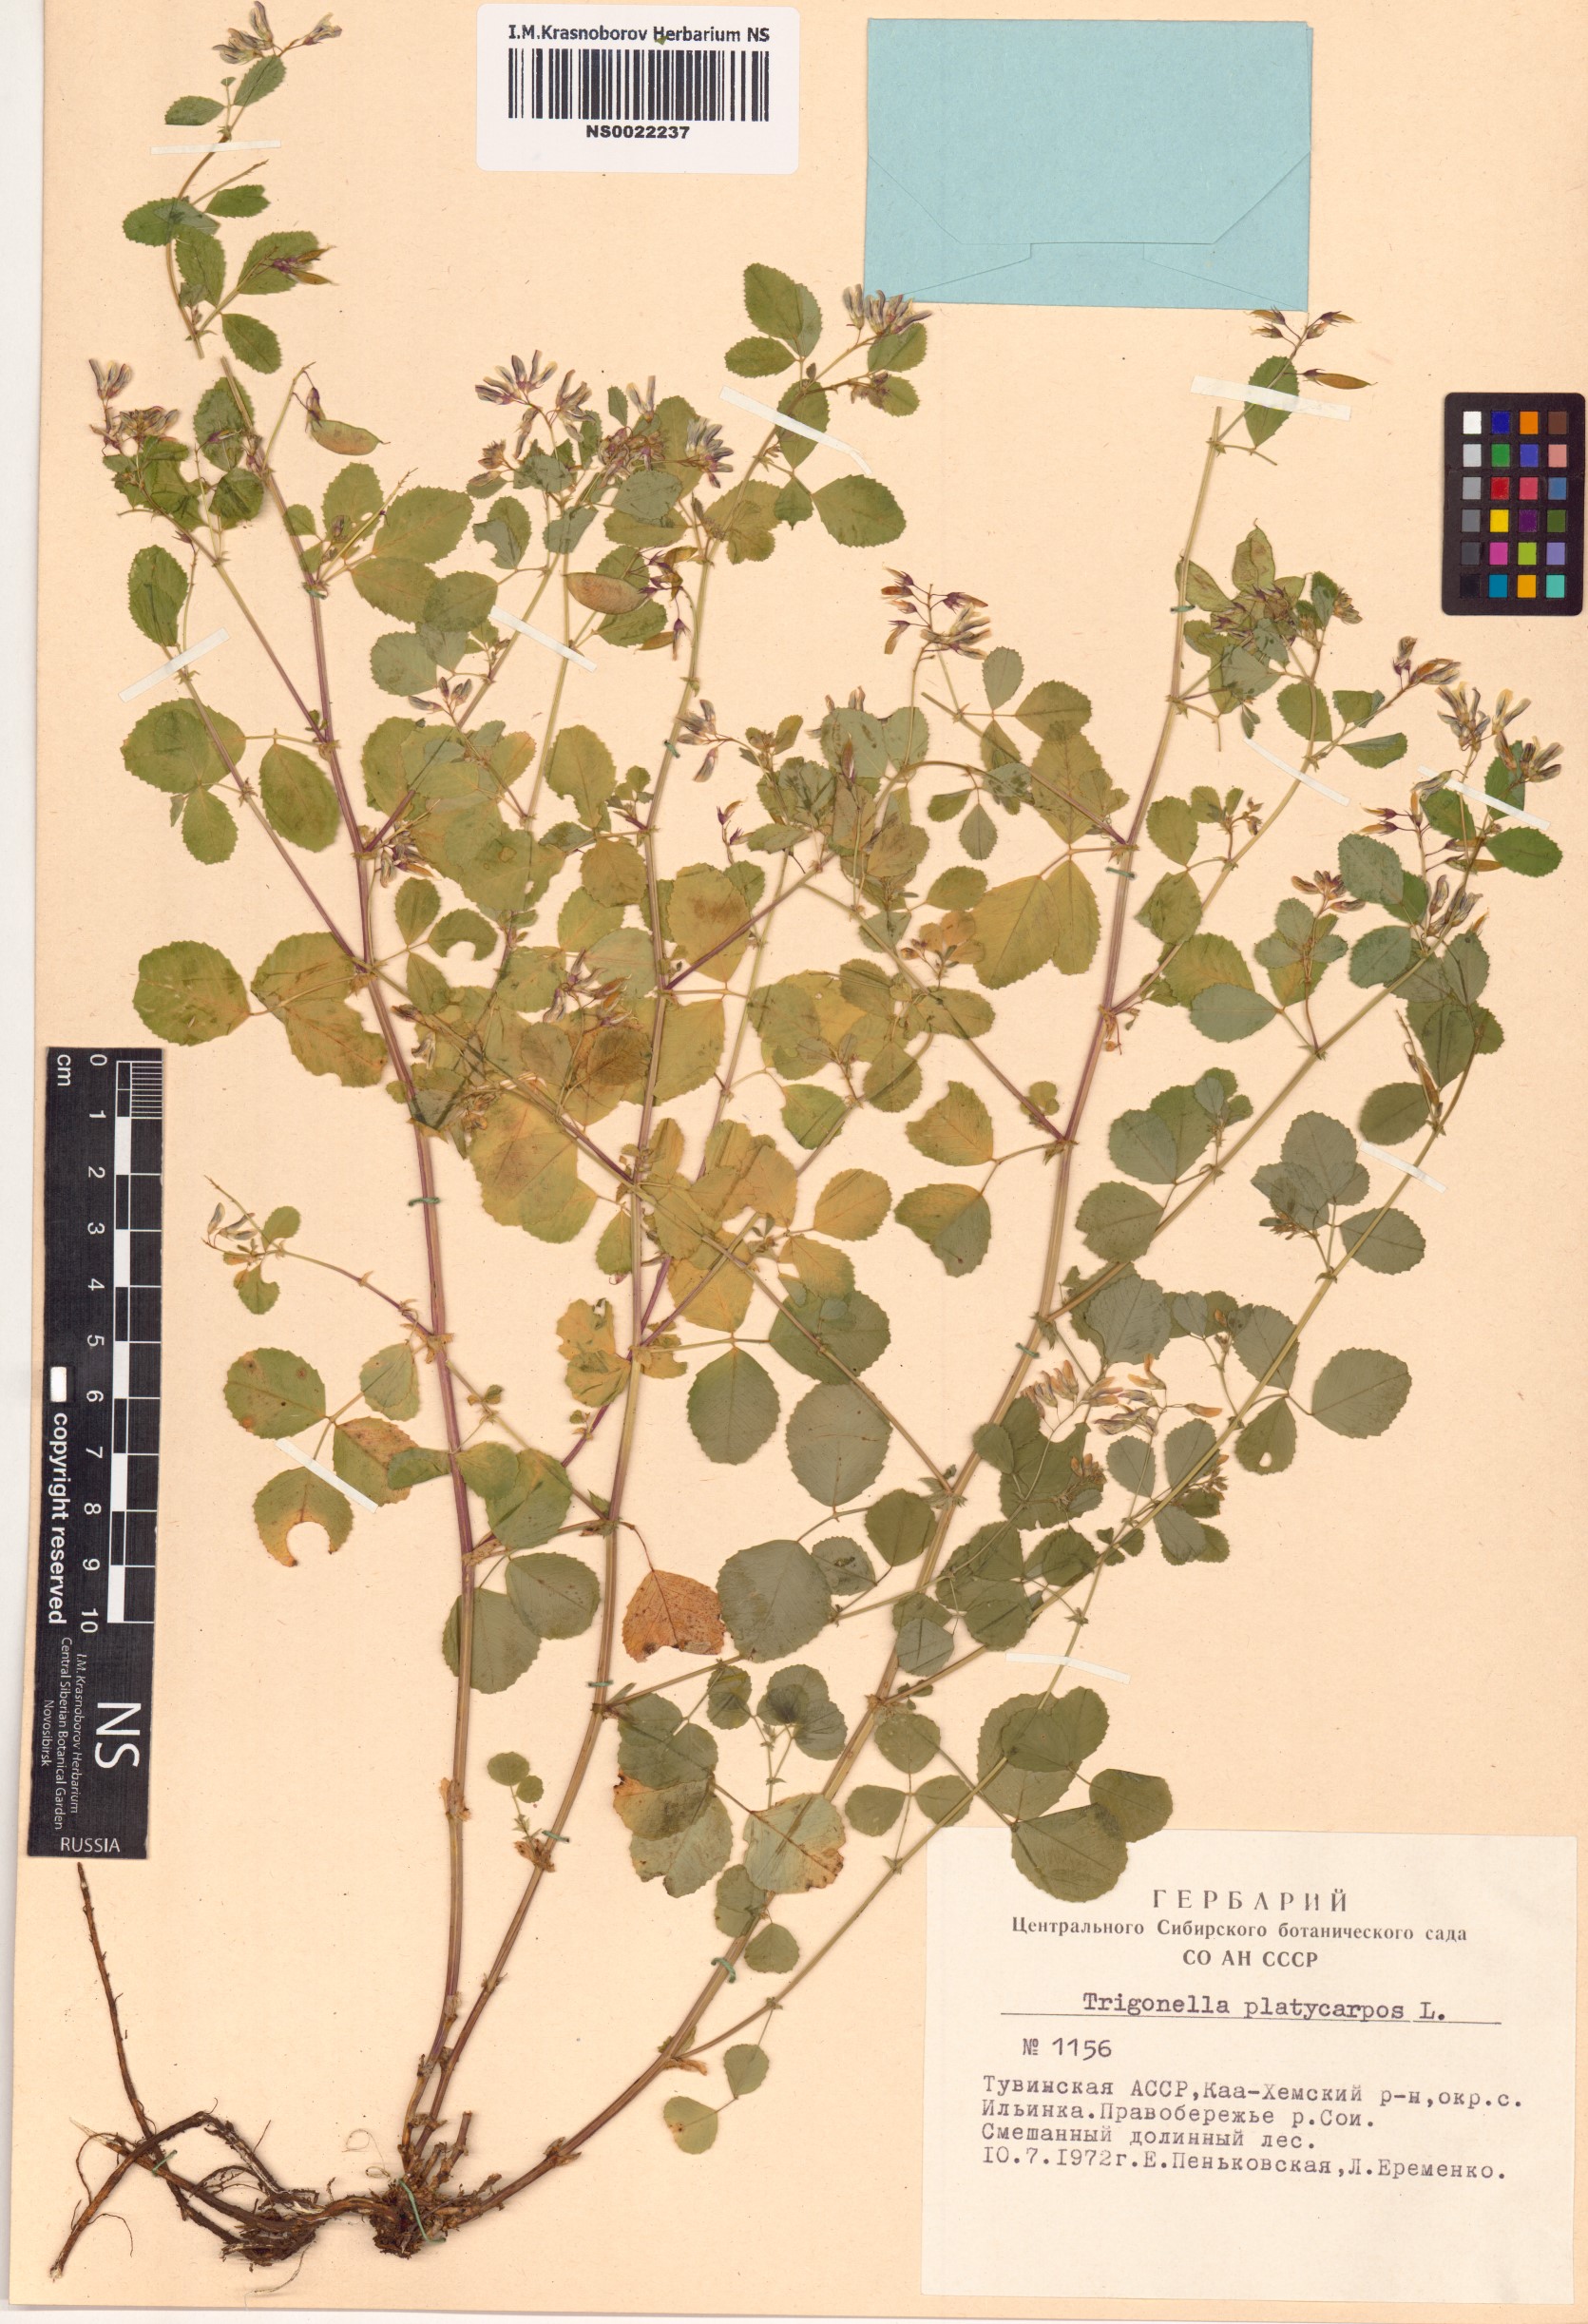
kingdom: Plantae
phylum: Tracheophyta
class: Magnoliopsida
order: Fabales
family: Fabaceae
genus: Medicago
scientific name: Medicago platycarpos
